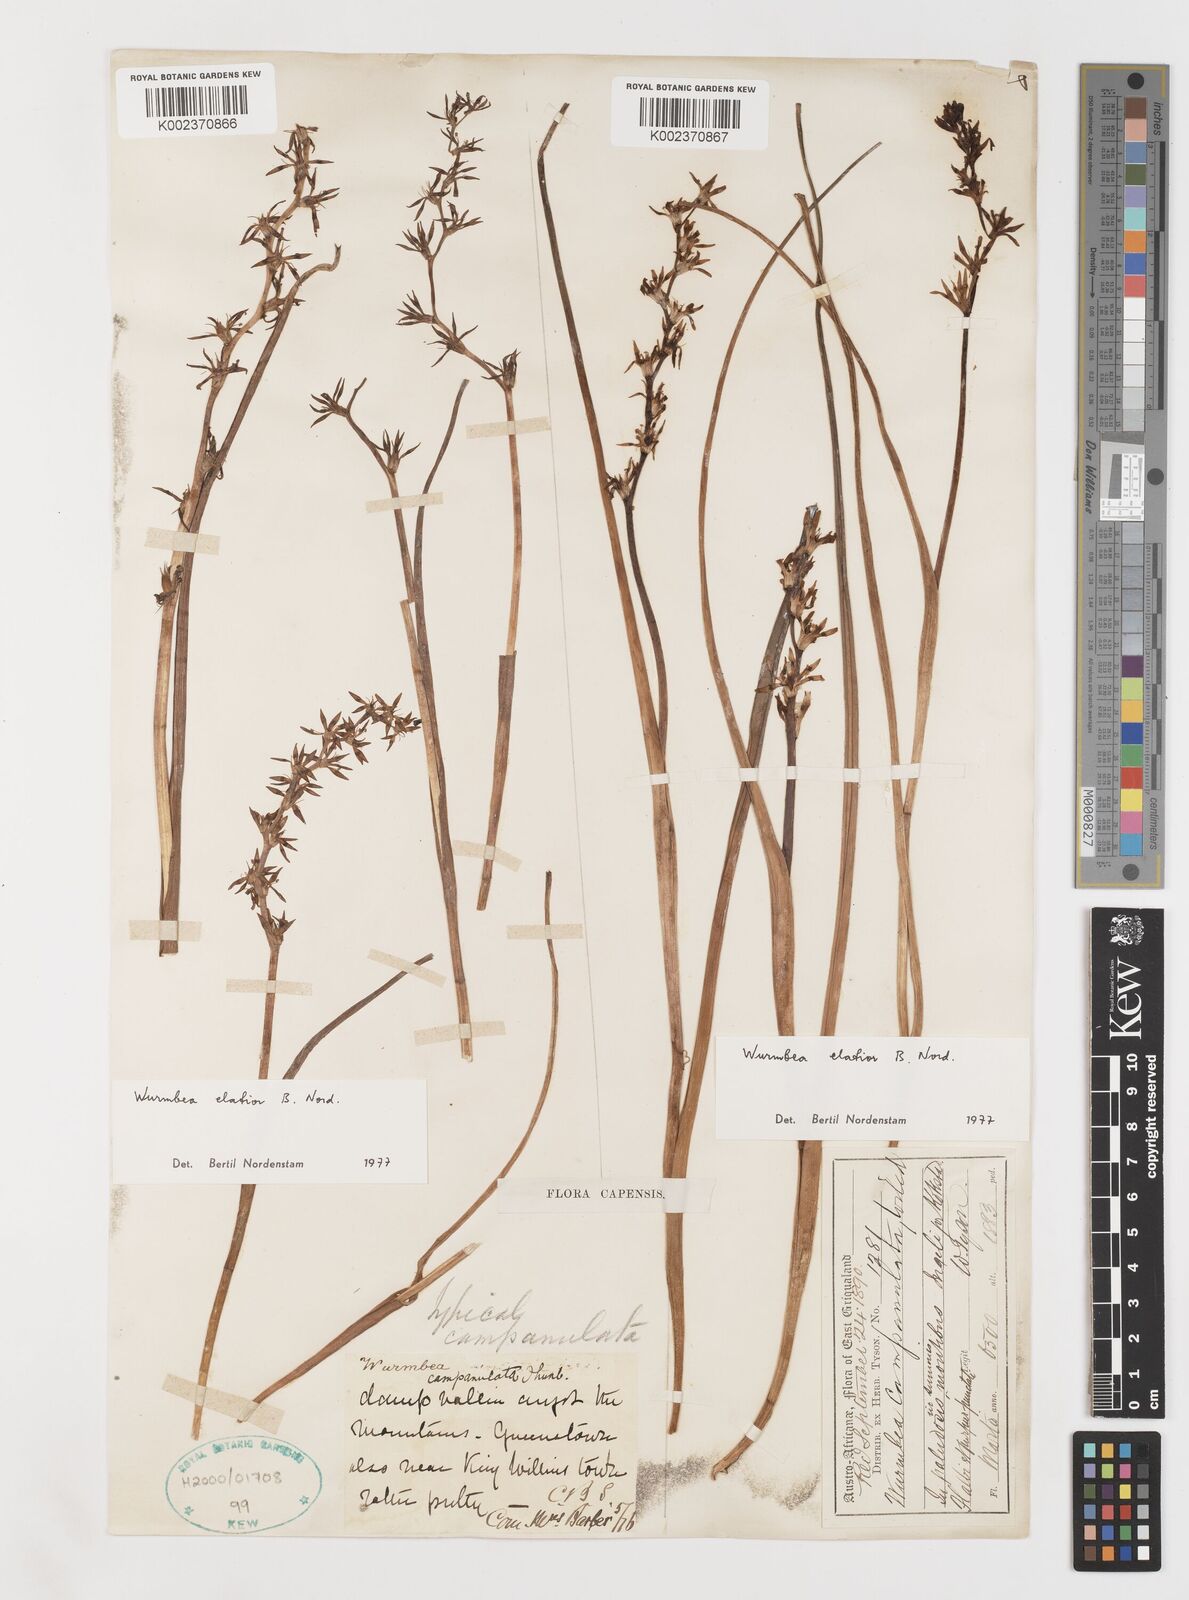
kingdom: Plantae
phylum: Tracheophyta
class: Liliopsida
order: Liliales
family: Colchicaceae
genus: Wurmbea
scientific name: Wurmbea elatior
